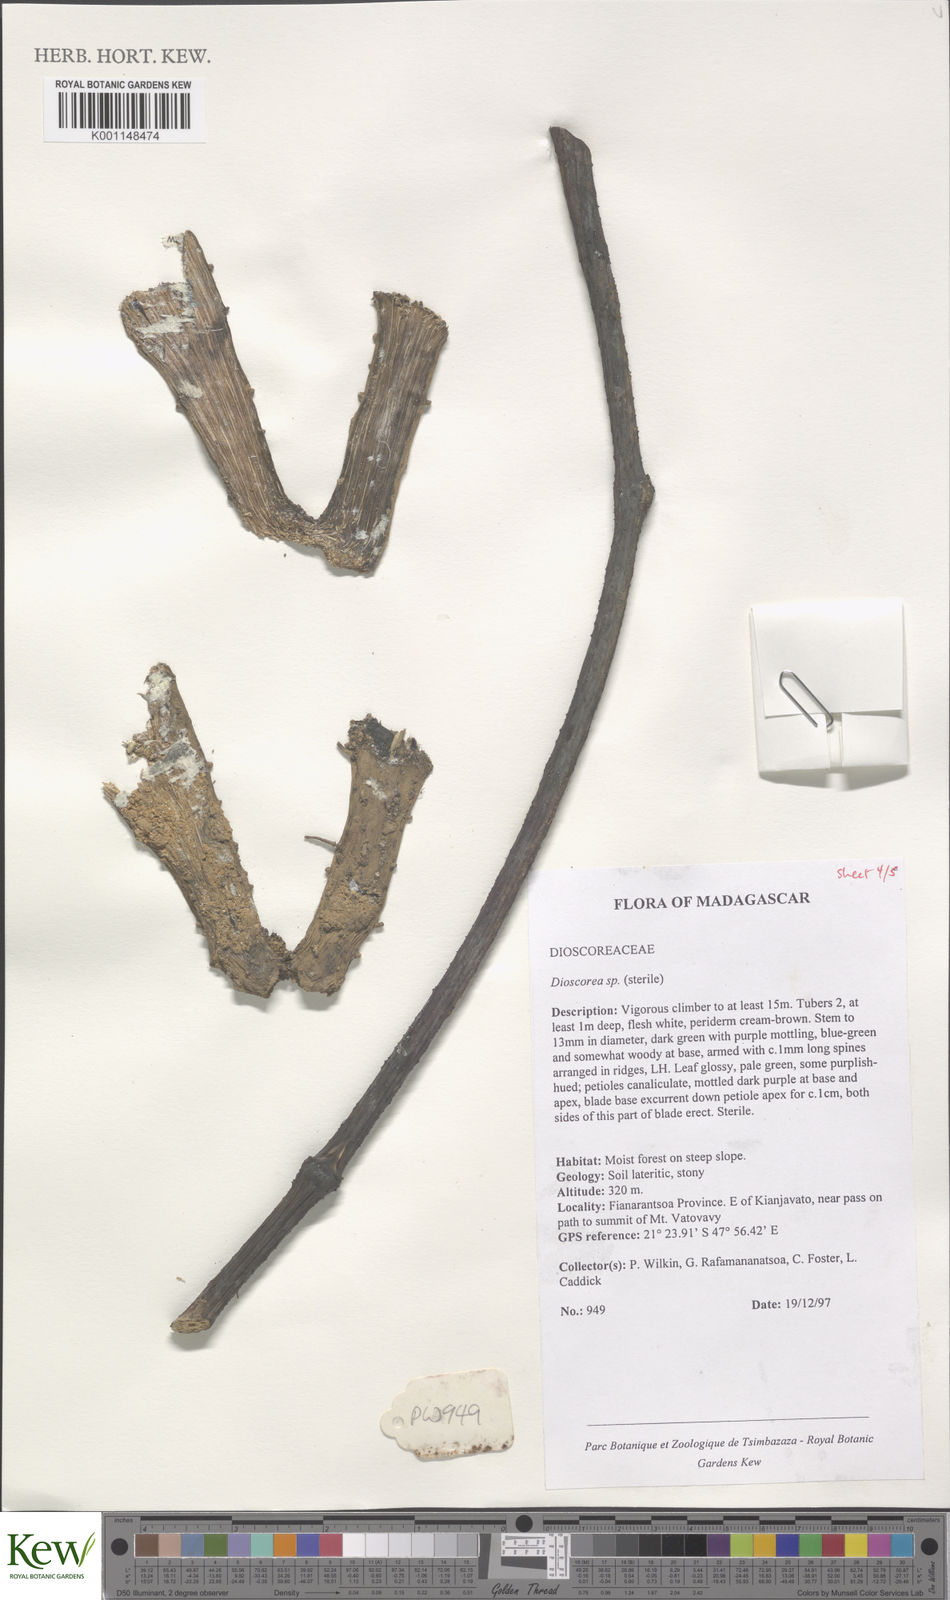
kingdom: Plantae
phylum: Tracheophyta
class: Liliopsida
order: Dioscoreales
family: Dioscoreaceae
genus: Dioscorea
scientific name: Dioscorea
